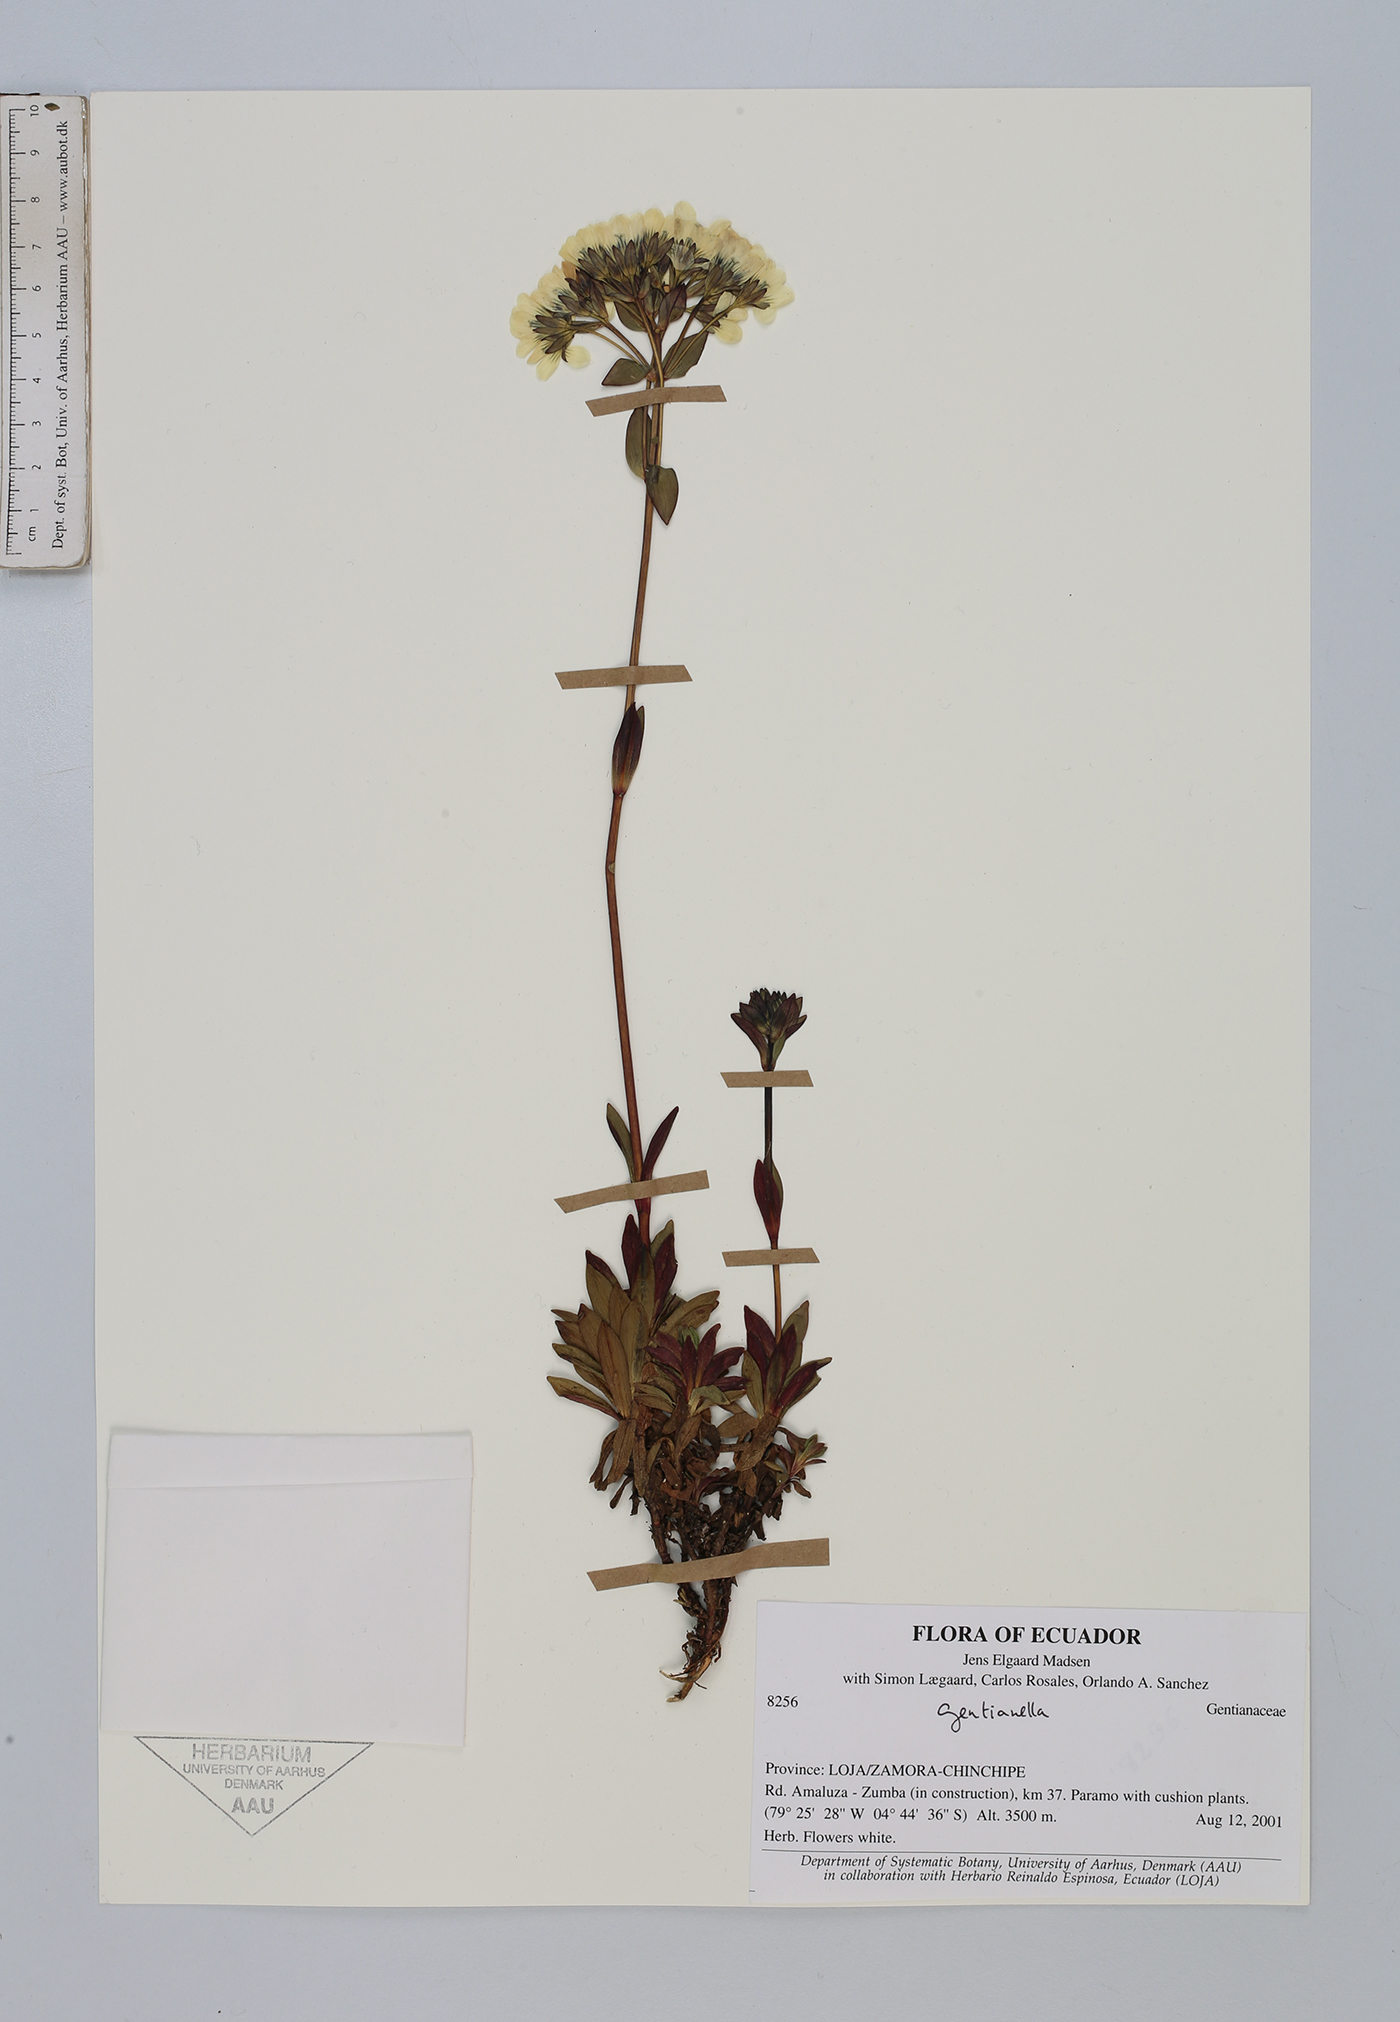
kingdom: Plantae
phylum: Tracheophyta
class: Magnoliopsida
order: Gentianales
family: Gentianaceae
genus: Gentianella
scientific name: Gentianella
